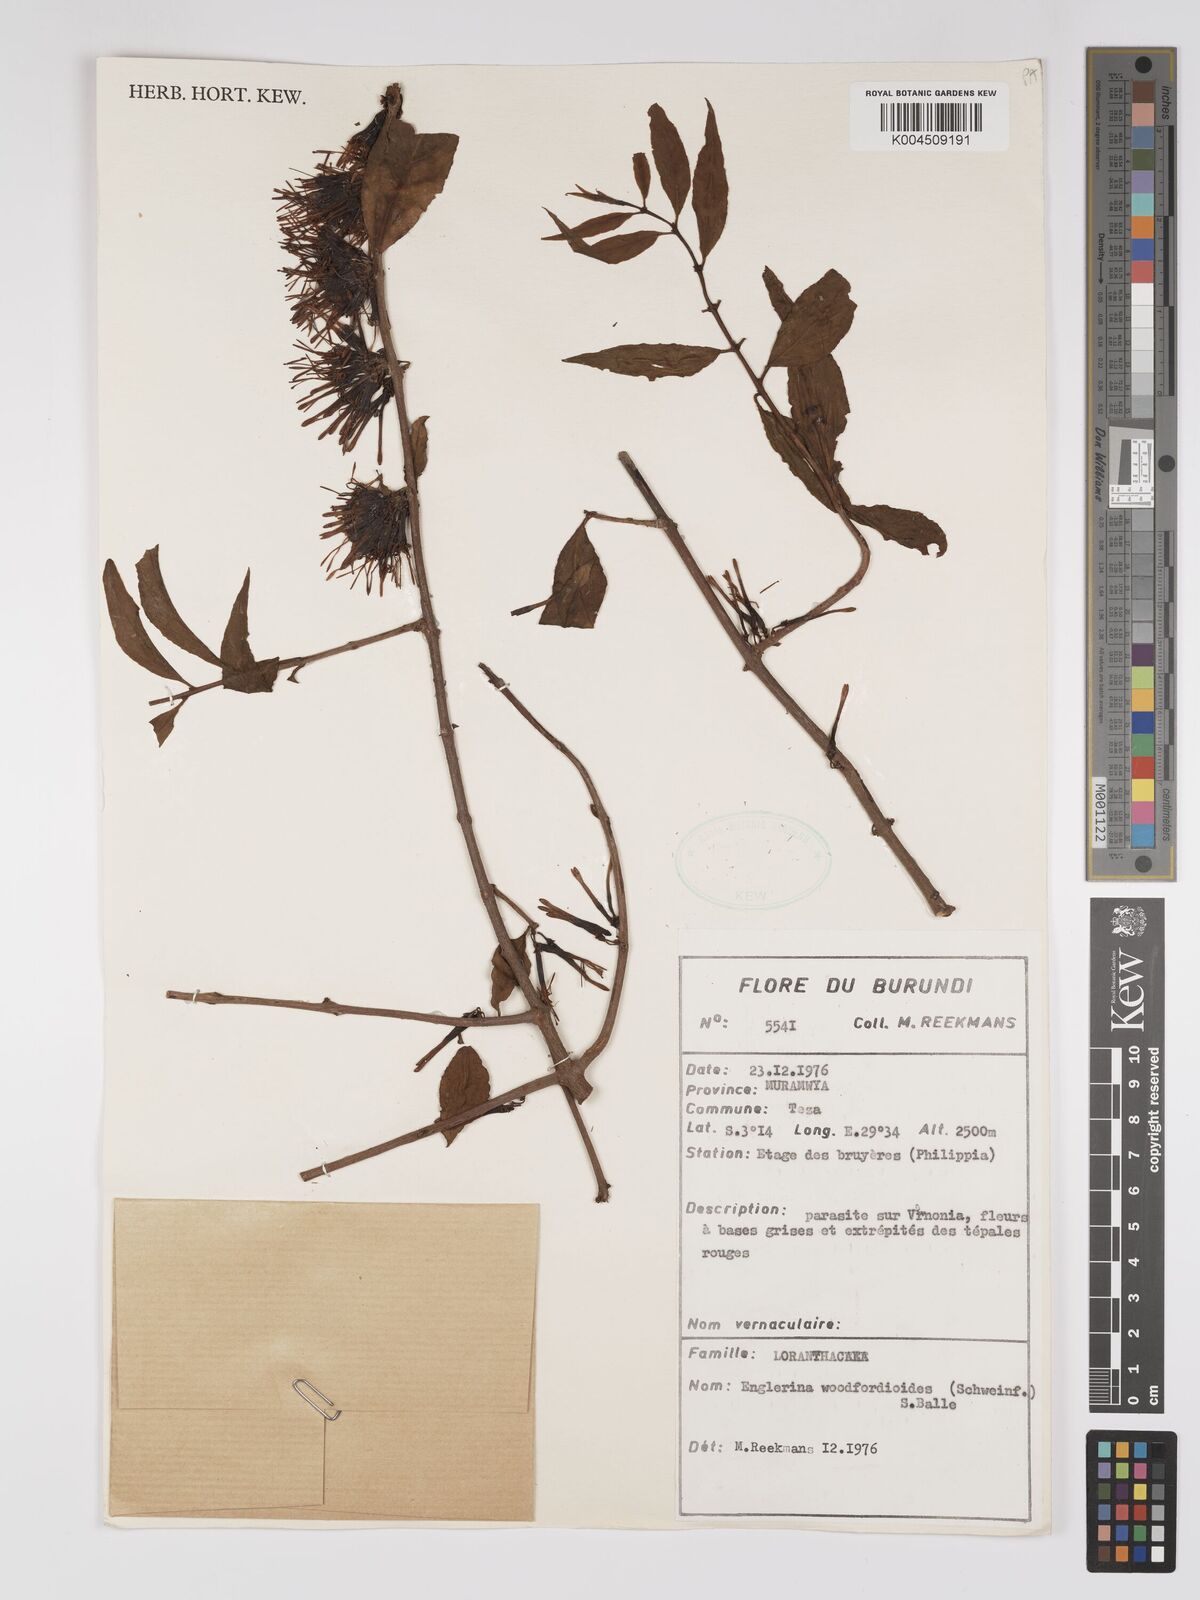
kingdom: Plantae
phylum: Tracheophyta
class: Magnoliopsida
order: Santalales
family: Loranthaceae
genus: Englerina
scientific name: Englerina woodfordioides
